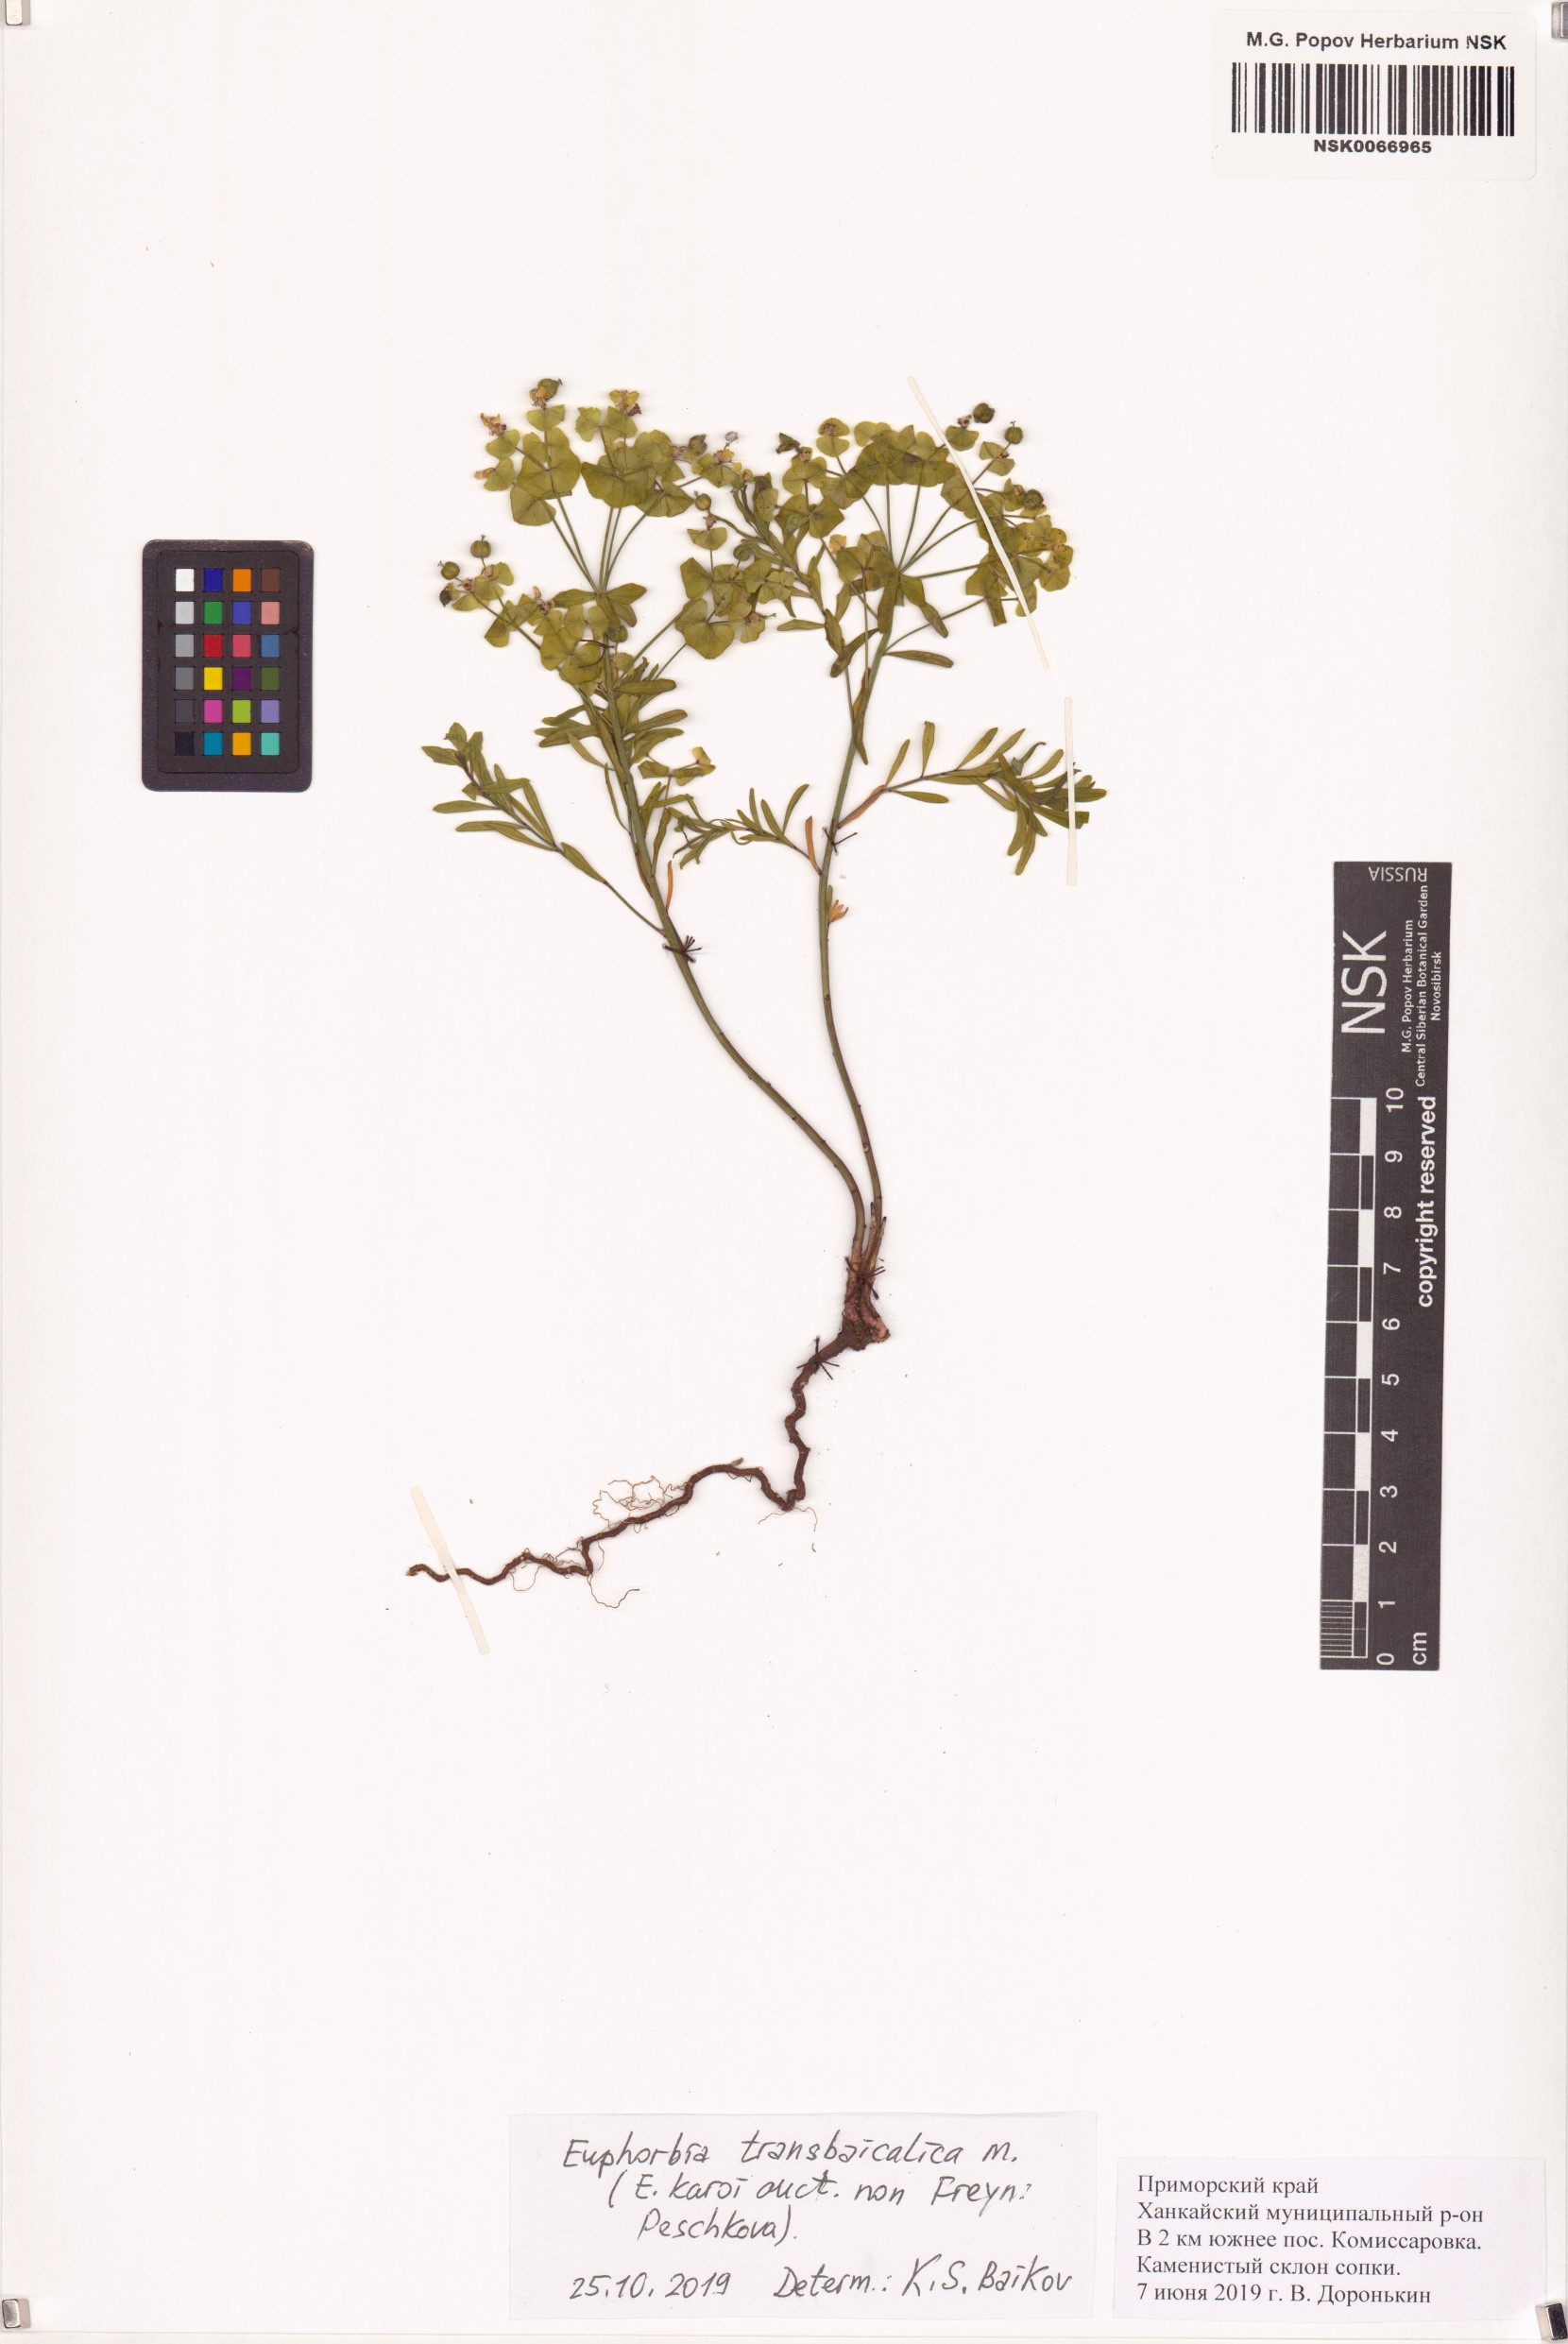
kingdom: Plantae
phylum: Tracheophyta
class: Magnoliopsida
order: Malpighiales
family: Euphorbiaceae
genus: Euphorbia
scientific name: Euphorbia esula
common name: Leafy spurge
